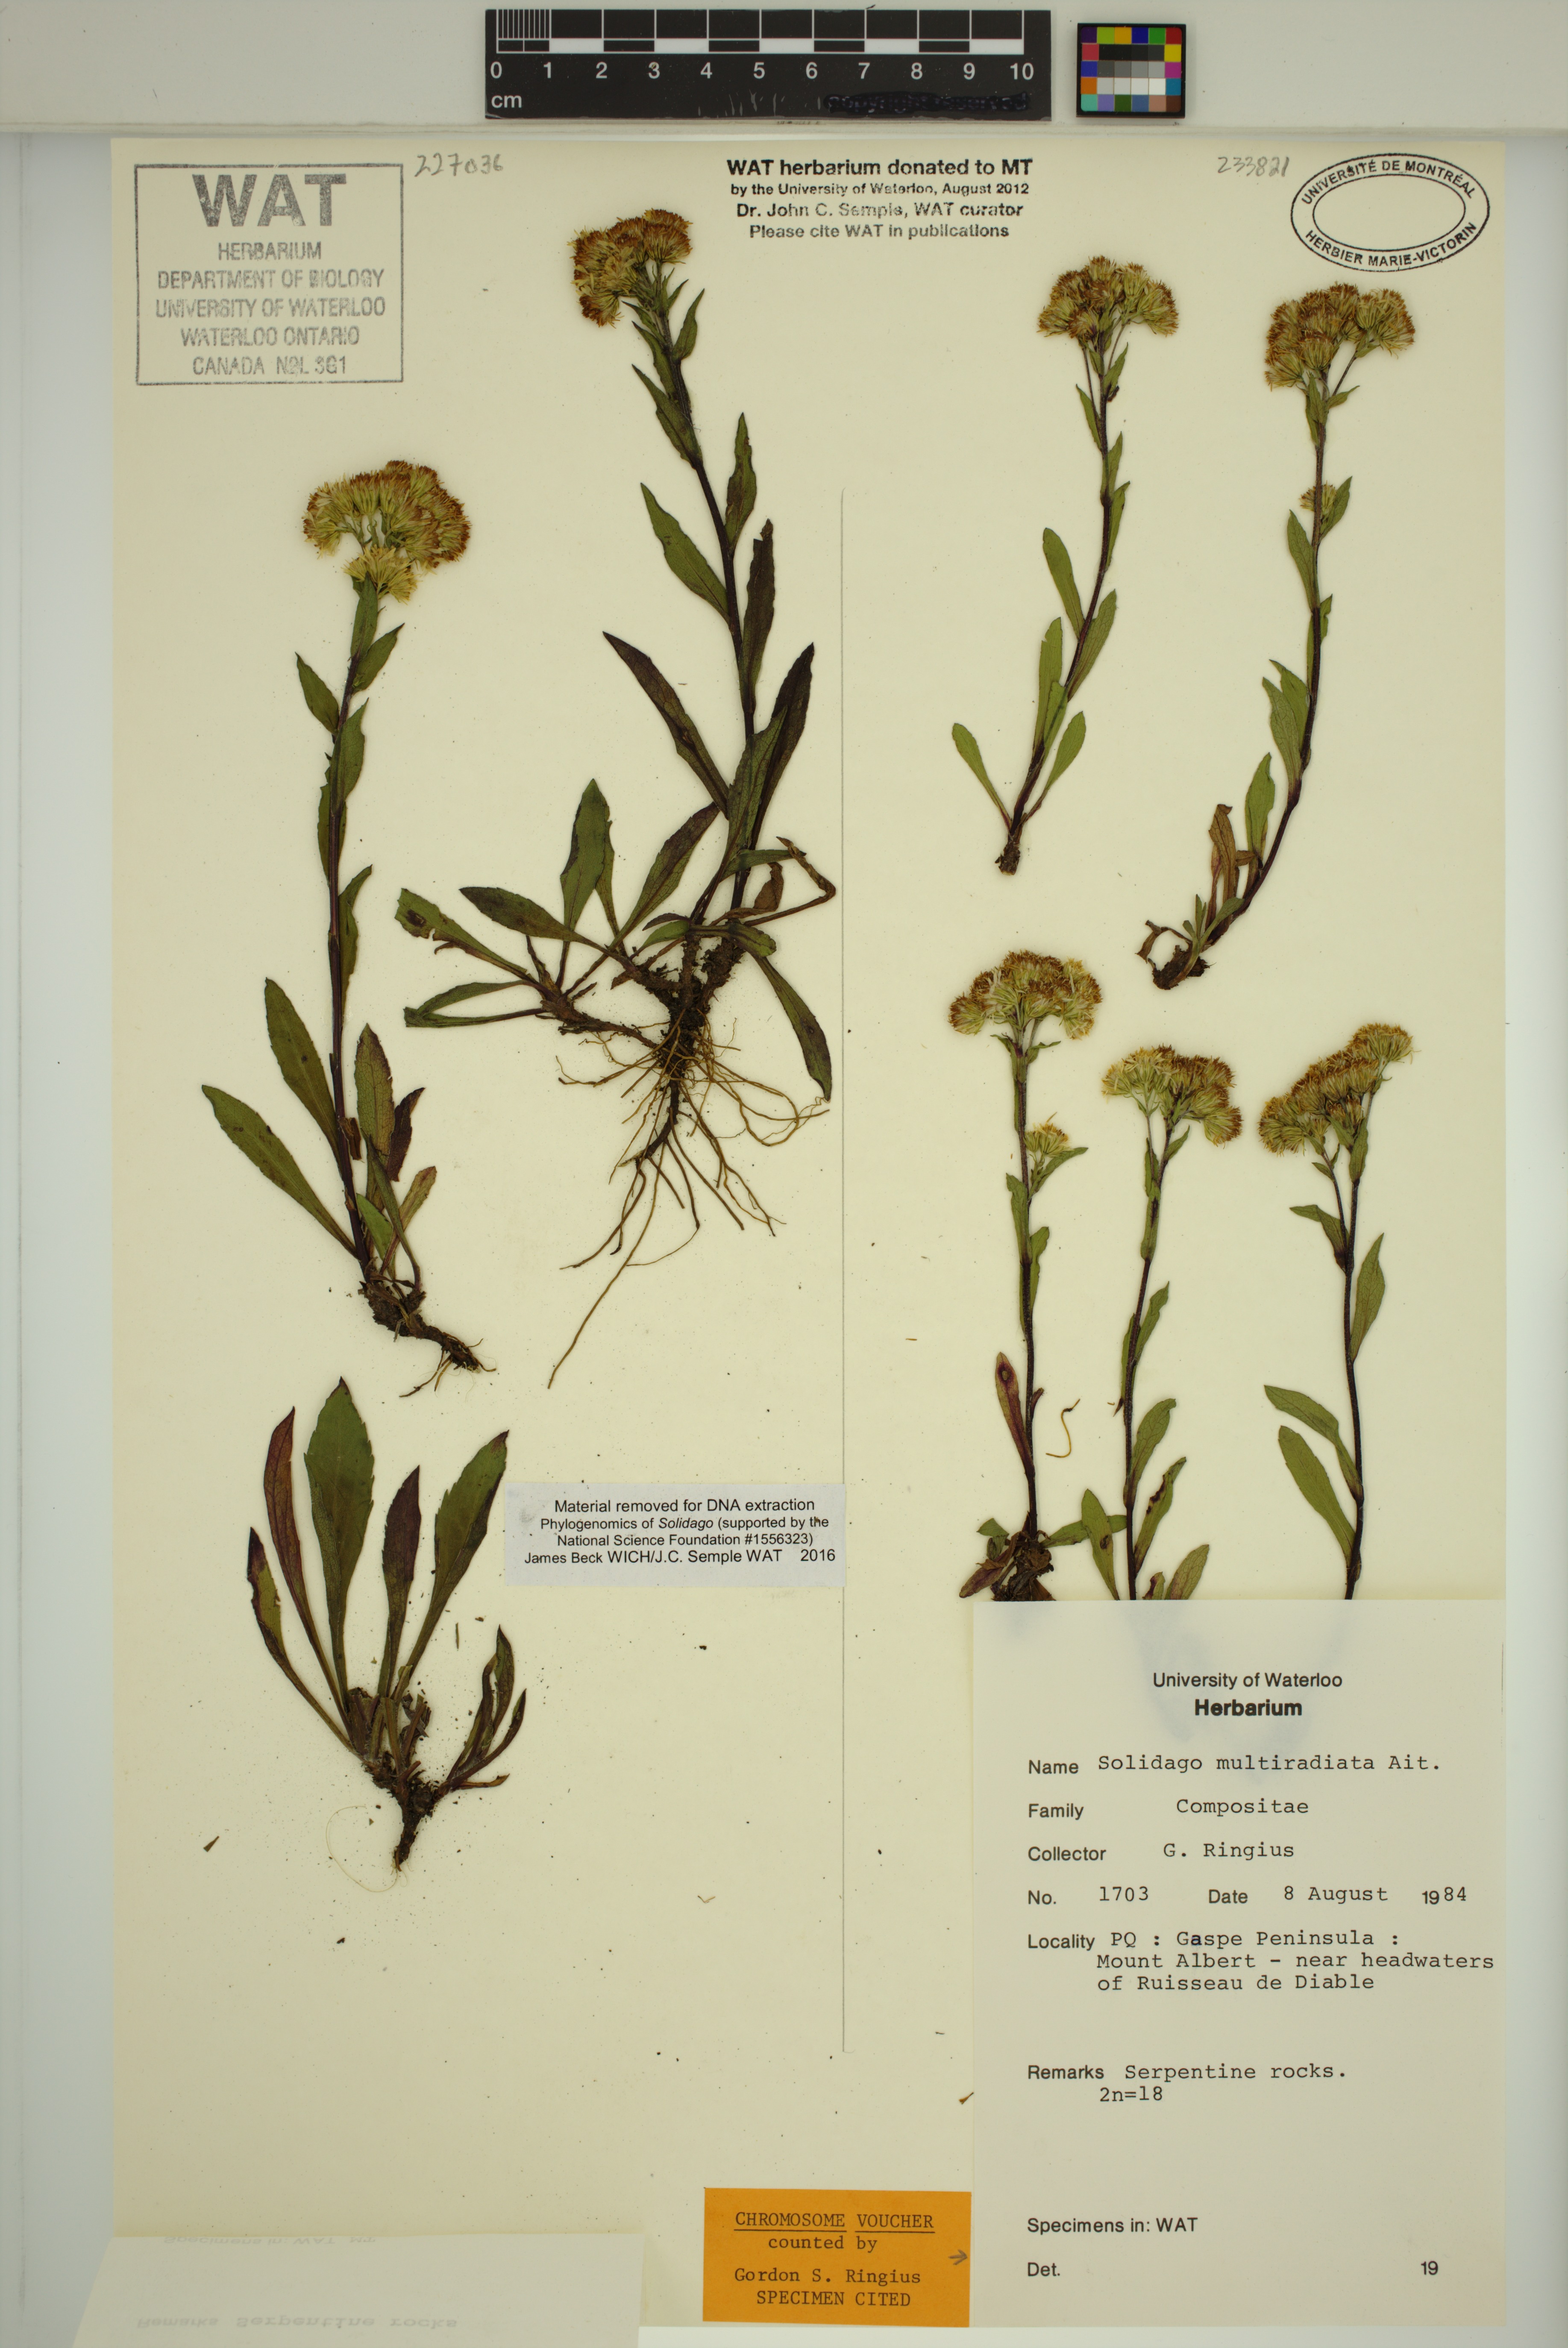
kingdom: Plantae
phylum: Tracheophyta
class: Magnoliopsida
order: Asterales
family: Asteraceae
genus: Solidago
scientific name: Solidago randii
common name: Rand's goldenrod
